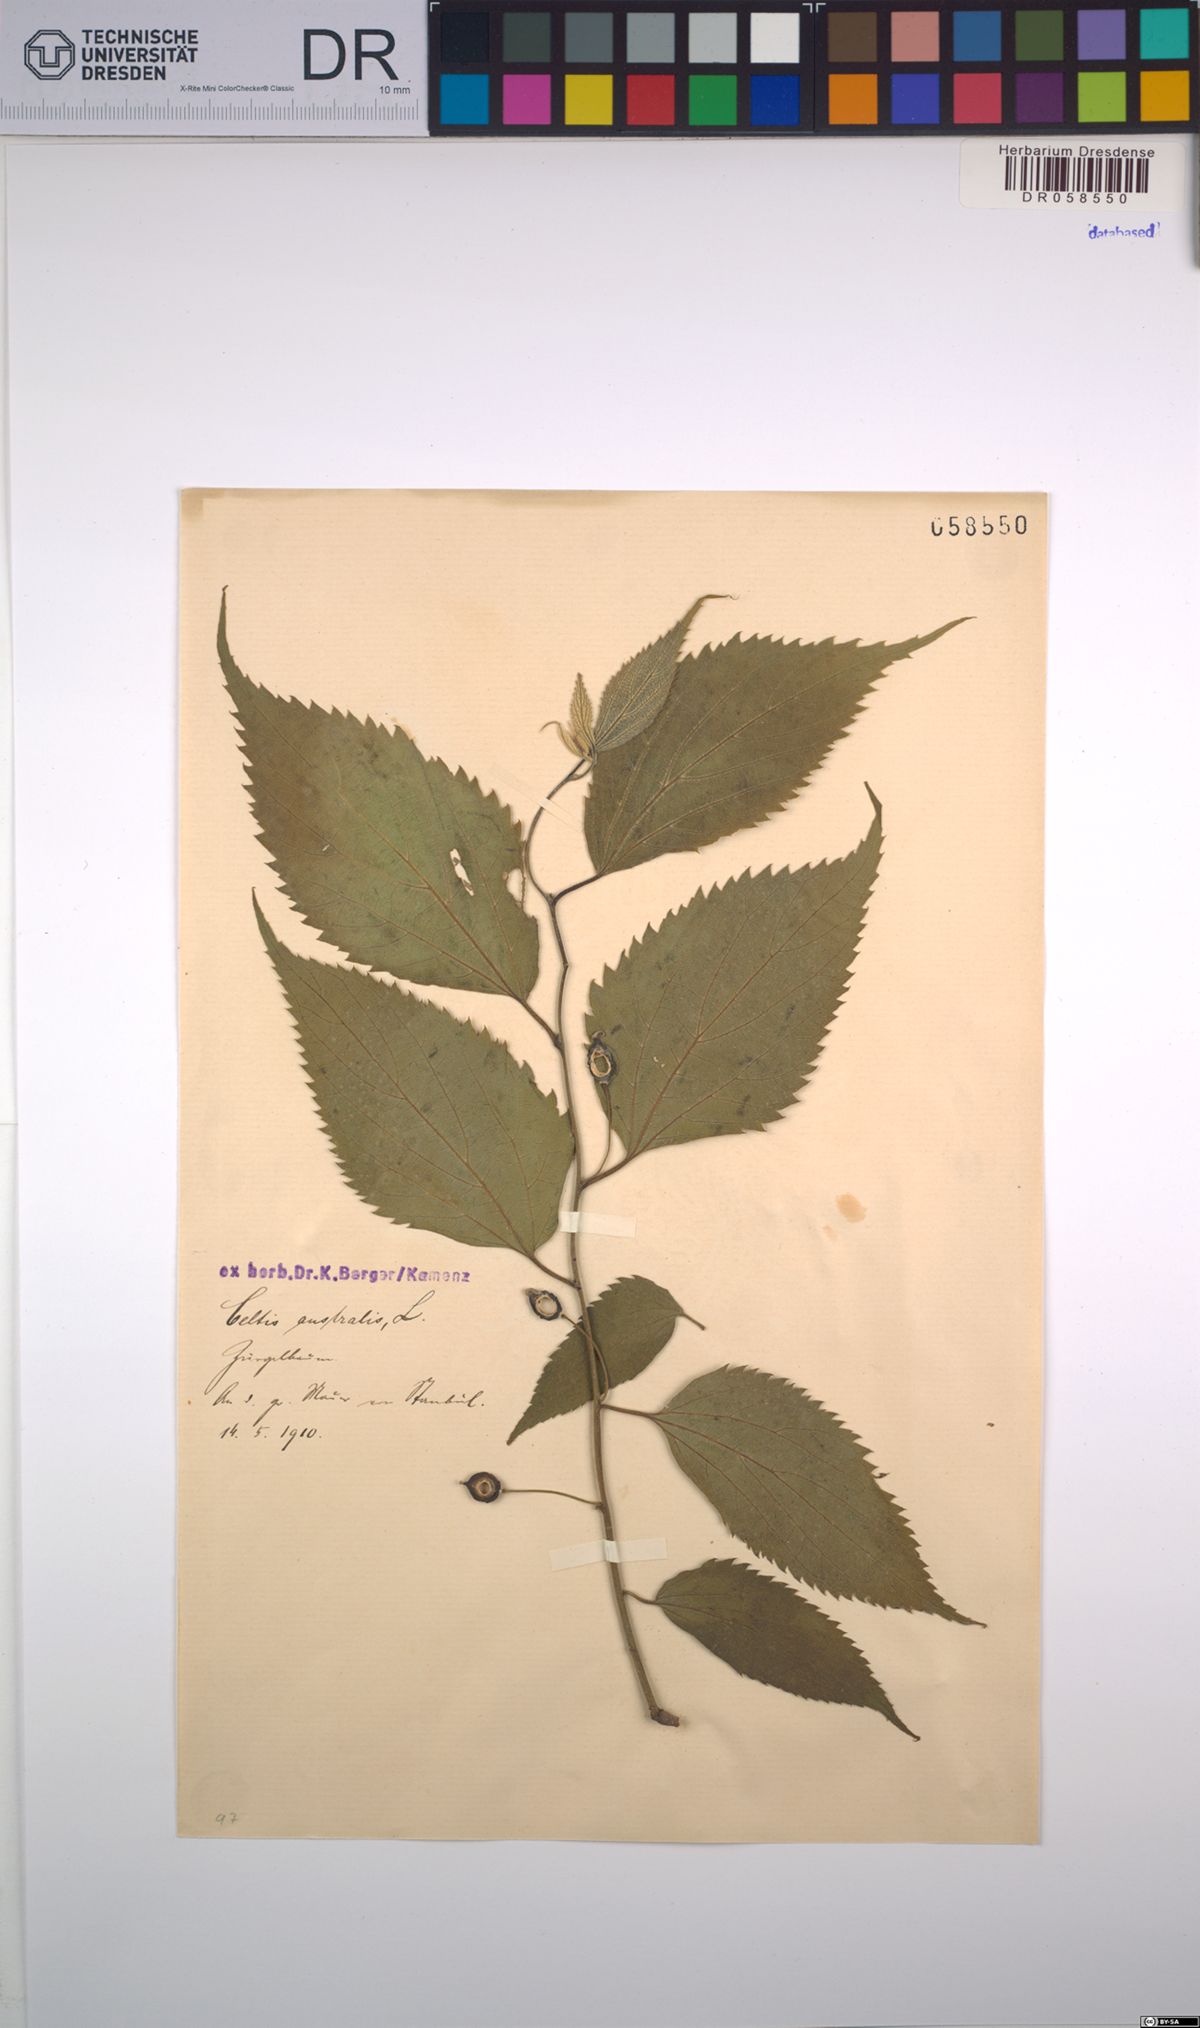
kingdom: Plantae
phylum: Tracheophyta
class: Magnoliopsida
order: Rosales
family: Cannabaceae
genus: Celtis
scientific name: Celtis australis
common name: European hackberry
